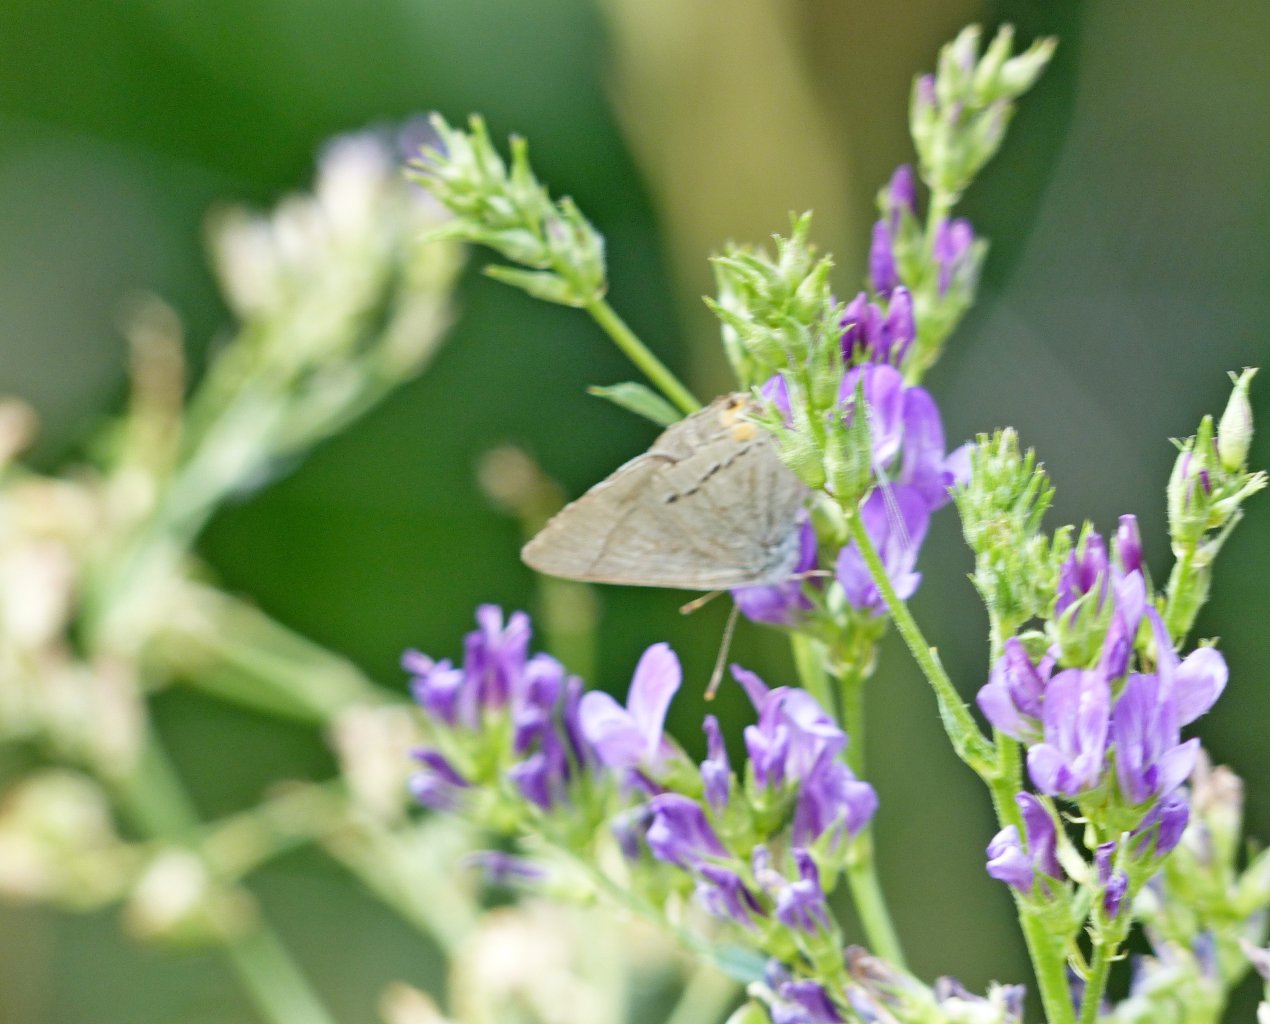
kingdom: Animalia
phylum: Arthropoda
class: Insecta
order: Lepidoptera
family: Lycaenidae
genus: Strymon
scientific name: Strymon melinus
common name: Gray Hairstreak
